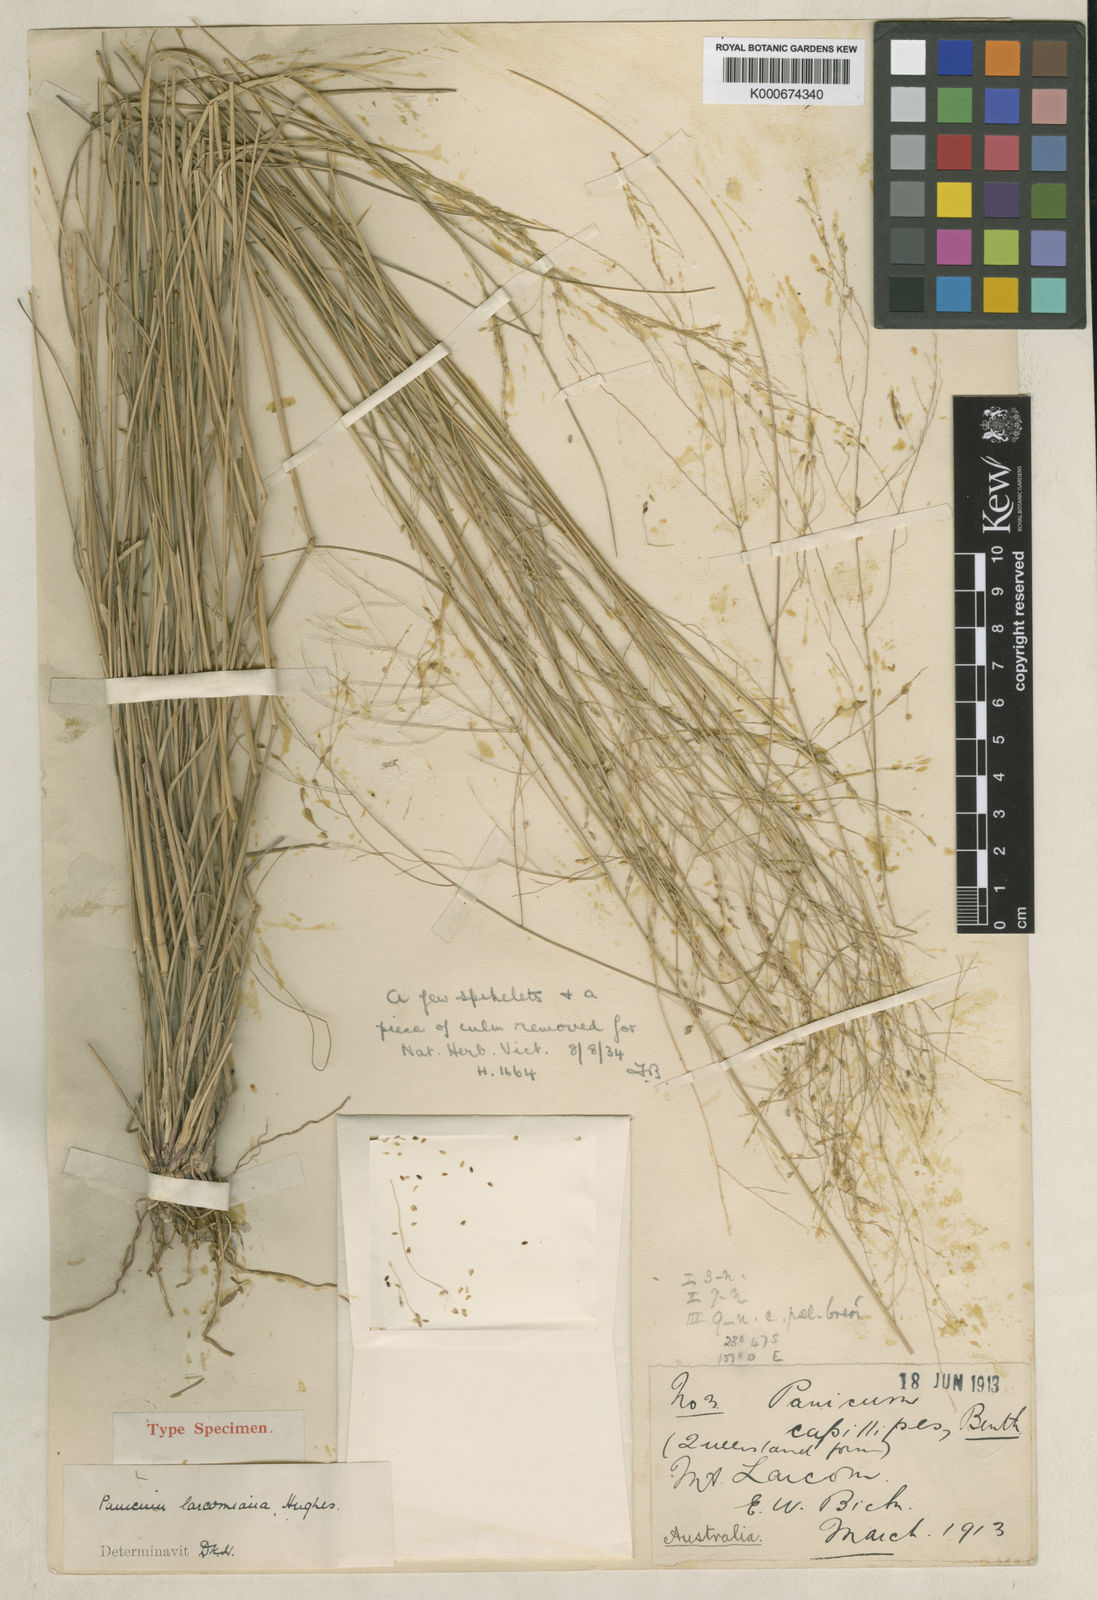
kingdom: Plantae
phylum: Tracheophyta
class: Liliopsida
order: Poales
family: Poaceae
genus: Panicum
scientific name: Panicum larcomianum
